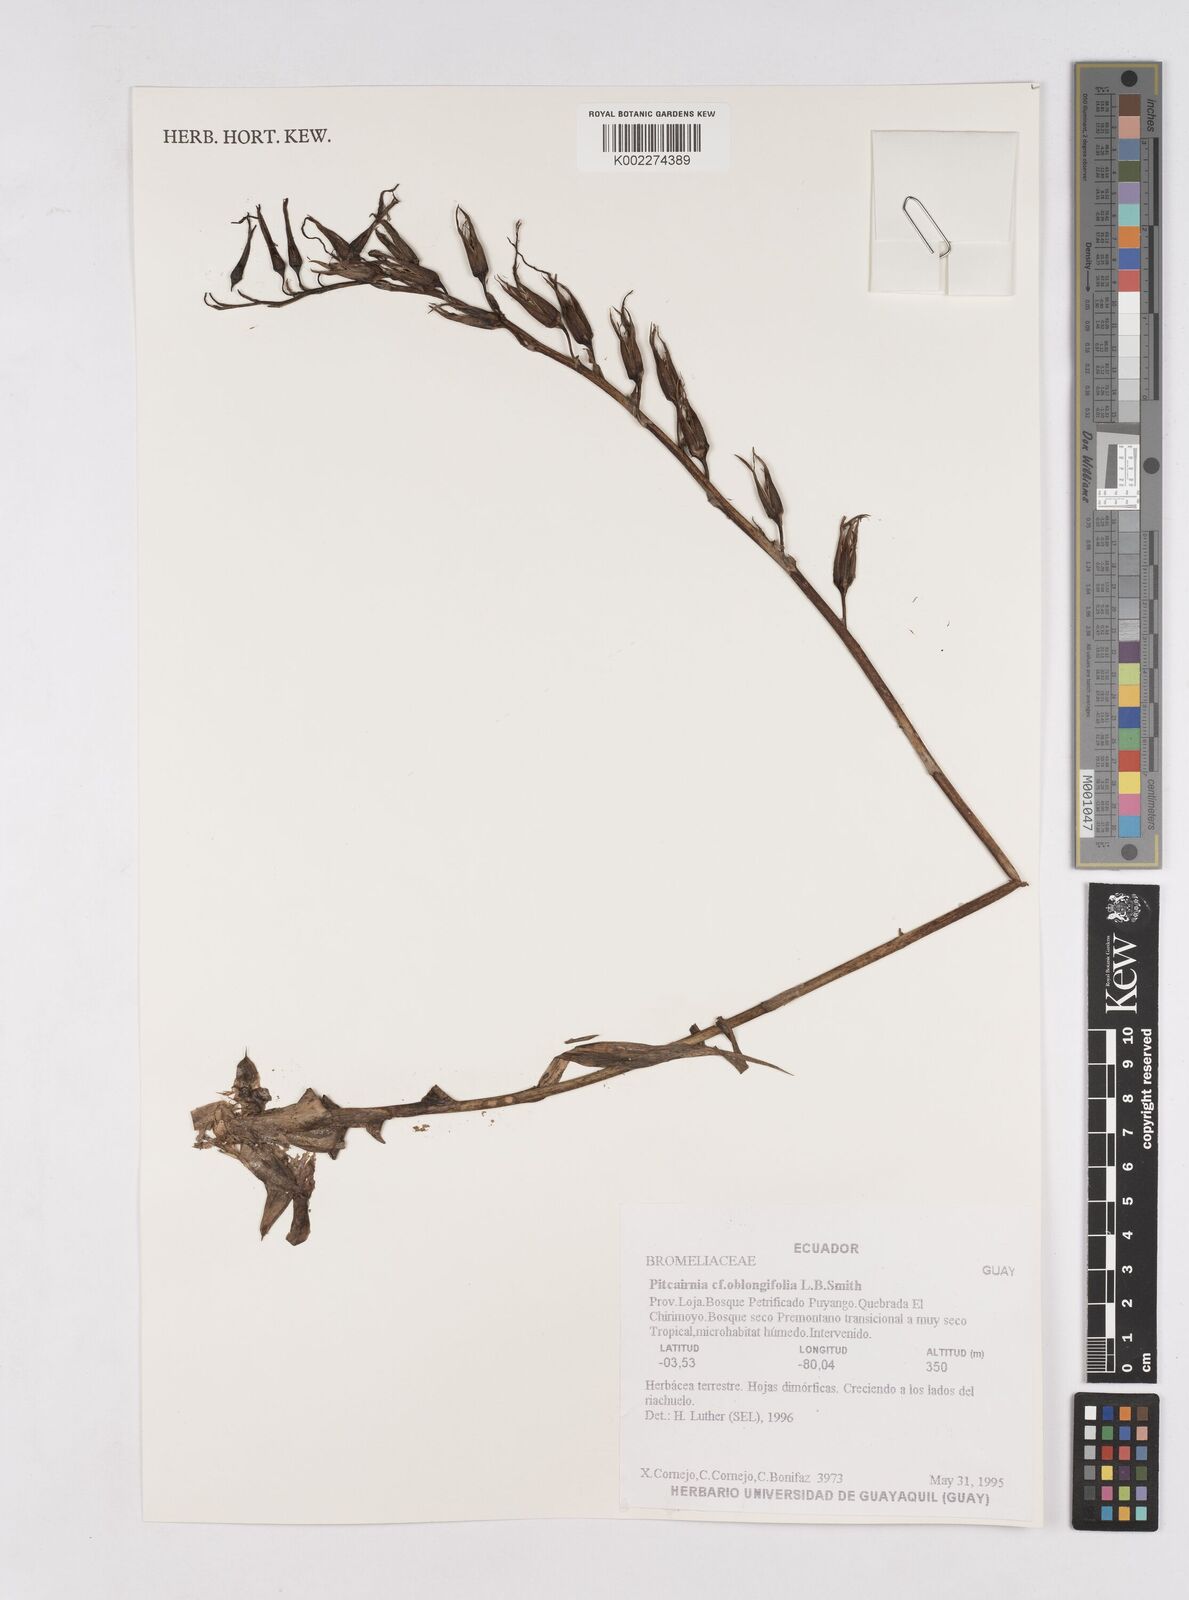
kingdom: Plantae
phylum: Tracheophyta
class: Liliopsida
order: Poales
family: Bromeliaceae
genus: Pitcairnia
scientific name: Pitcairnia oblongifolia
